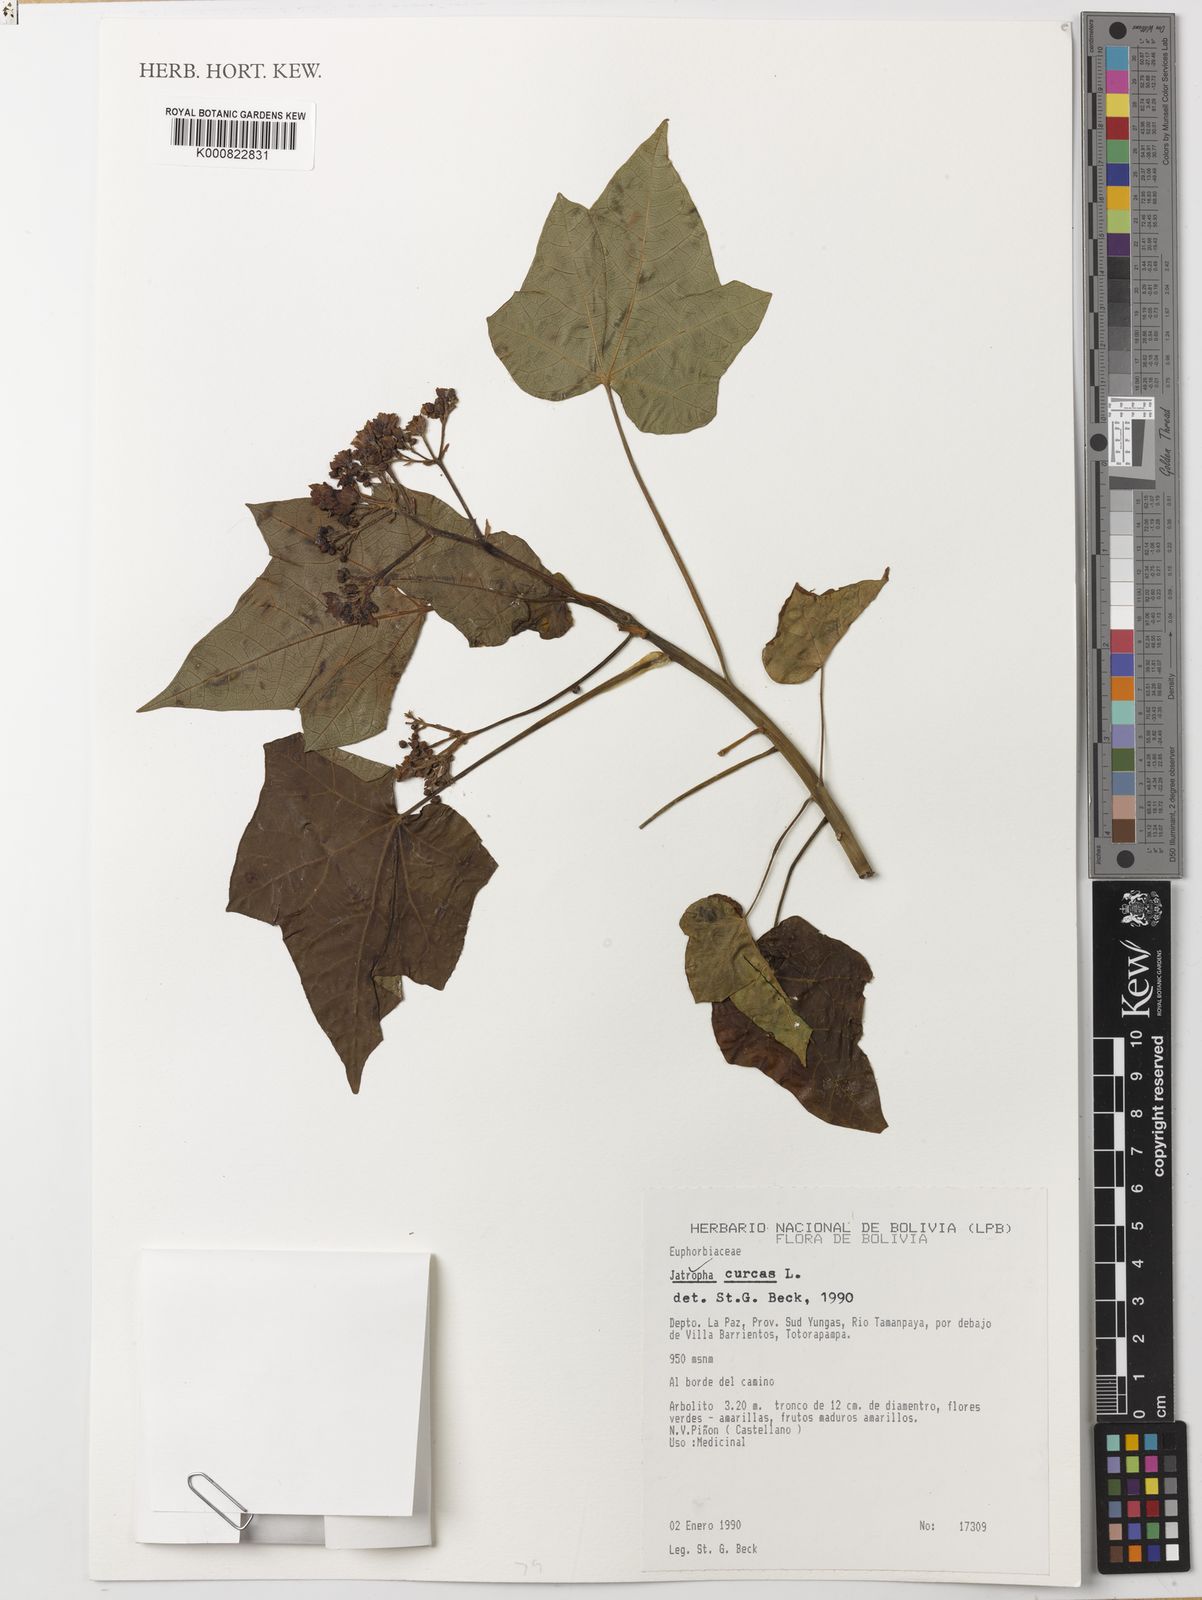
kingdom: Plantae
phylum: Tracheophyta
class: Magnoliopsida
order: Malpighiales
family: Euphorbiaceae
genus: Jatropha
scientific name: Jatropha curcas
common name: Barbados nut
